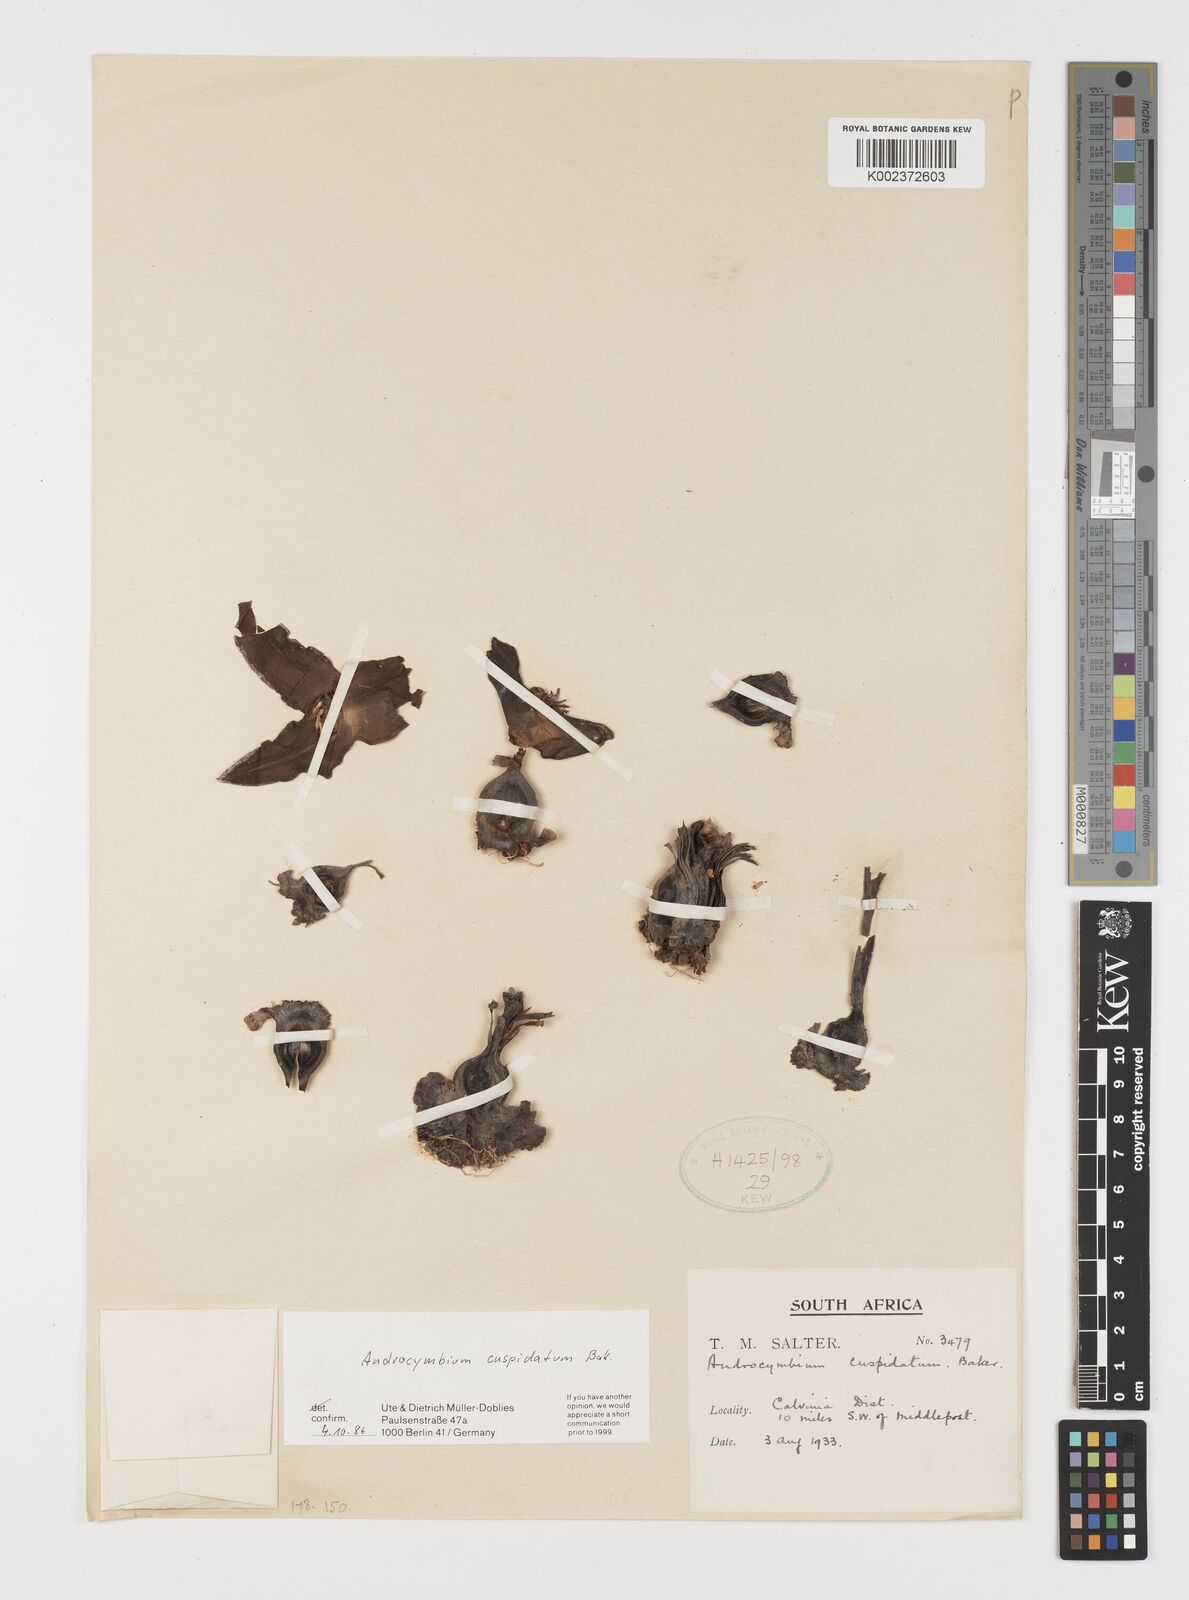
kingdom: Plantae
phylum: Tracheophyta
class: Liliopsida
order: Liliales
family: Colchicaceae
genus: Colchicum
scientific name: Colchicum cuspidatum
